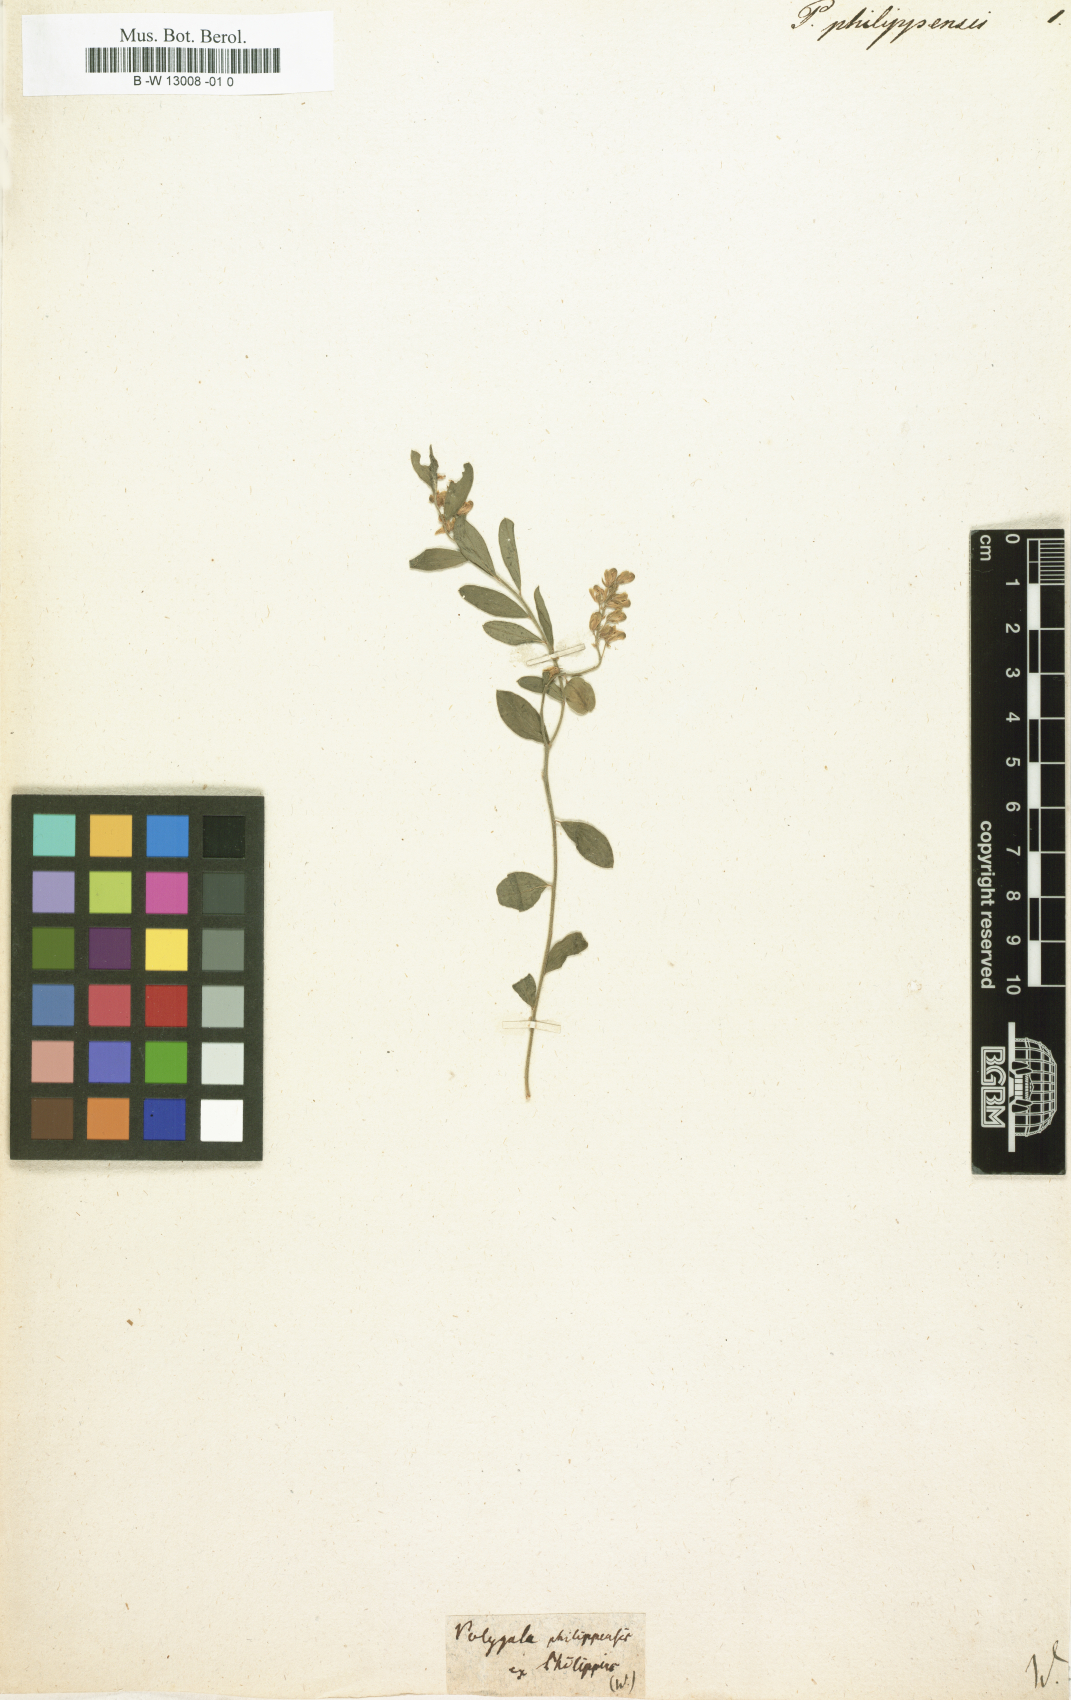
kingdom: Plantae
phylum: Tracheophyta
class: Magnoliopsida
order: Fabales
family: Polygalaceae
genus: Polygala
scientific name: Polygala
